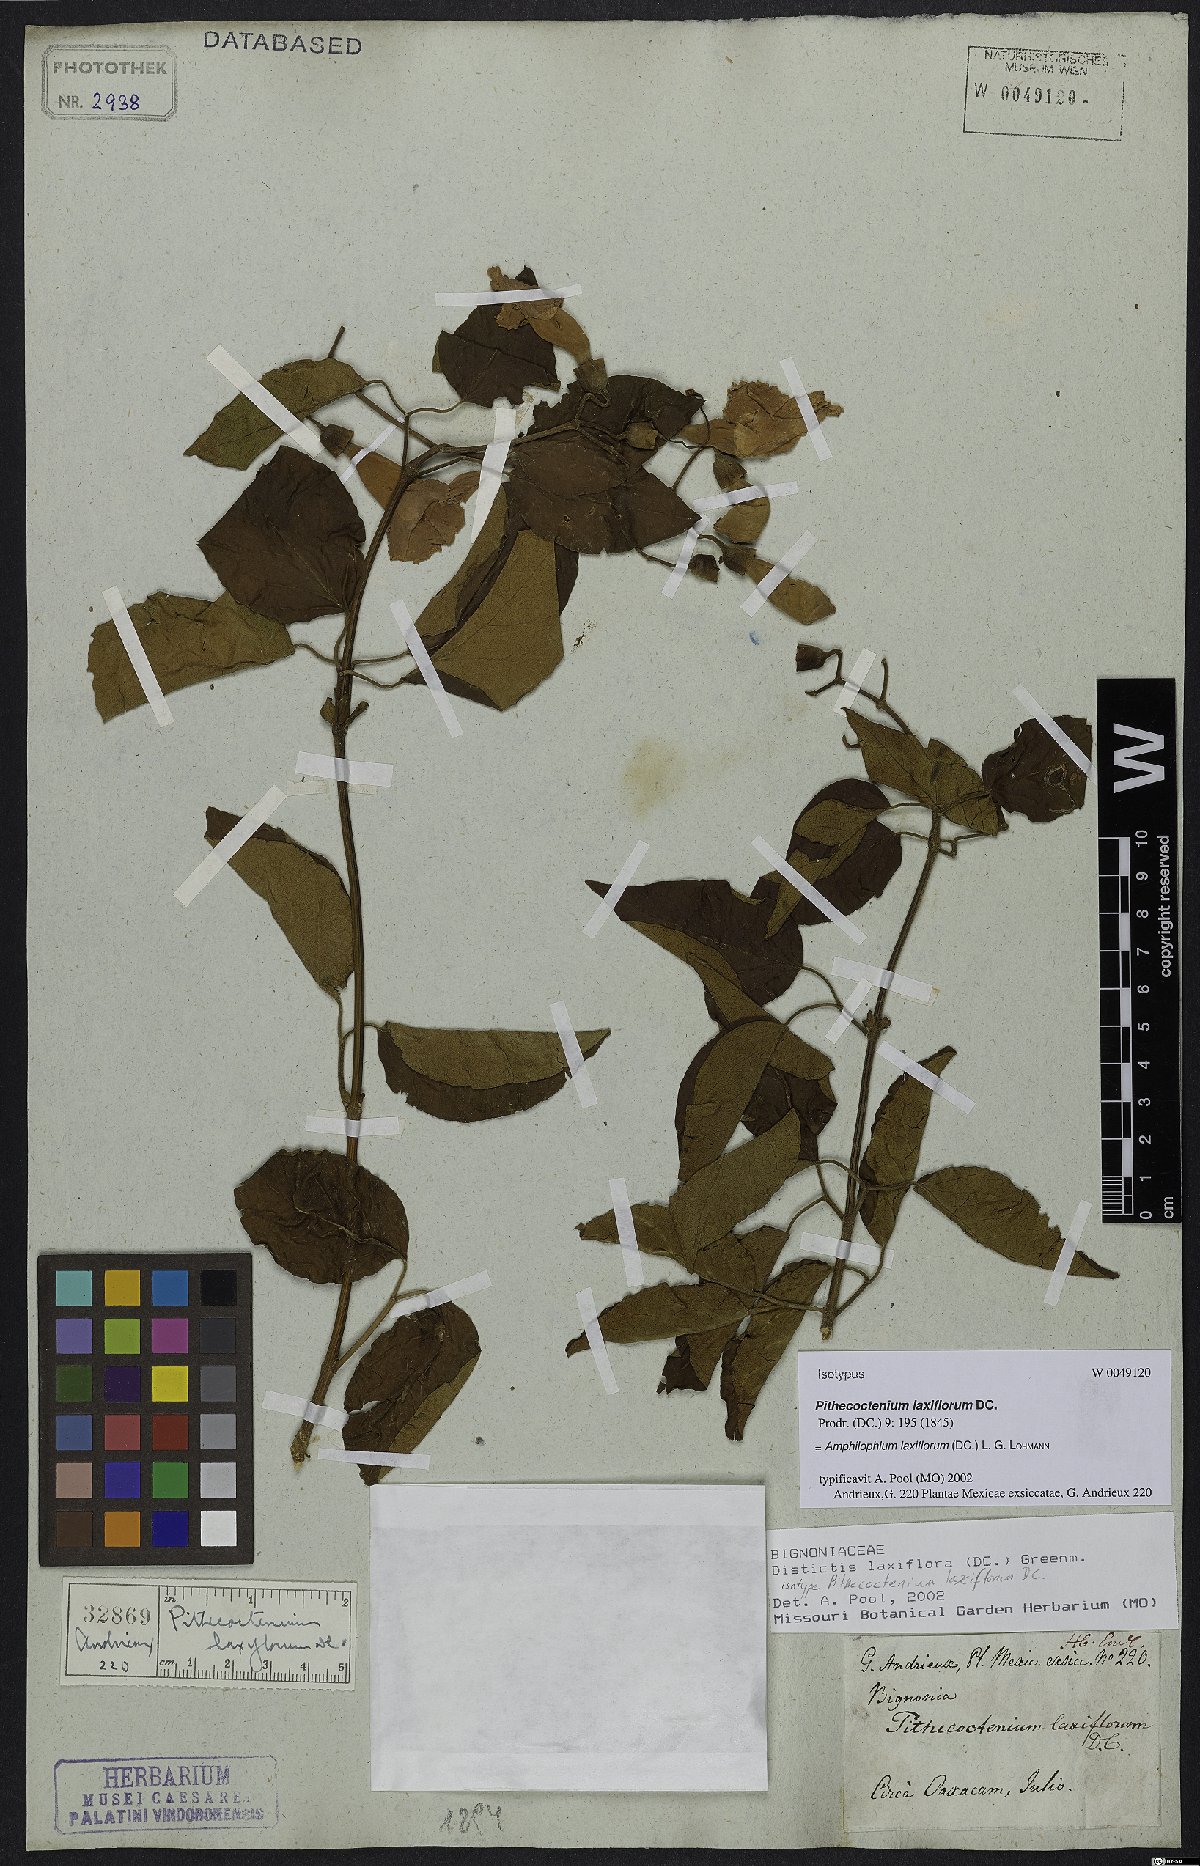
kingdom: Plantae
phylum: Tracheophyta
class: Magnoliopsida
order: Lamiales
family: Bignoniaceae
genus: Amphilophium
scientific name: Amphilophium laxiflorum
